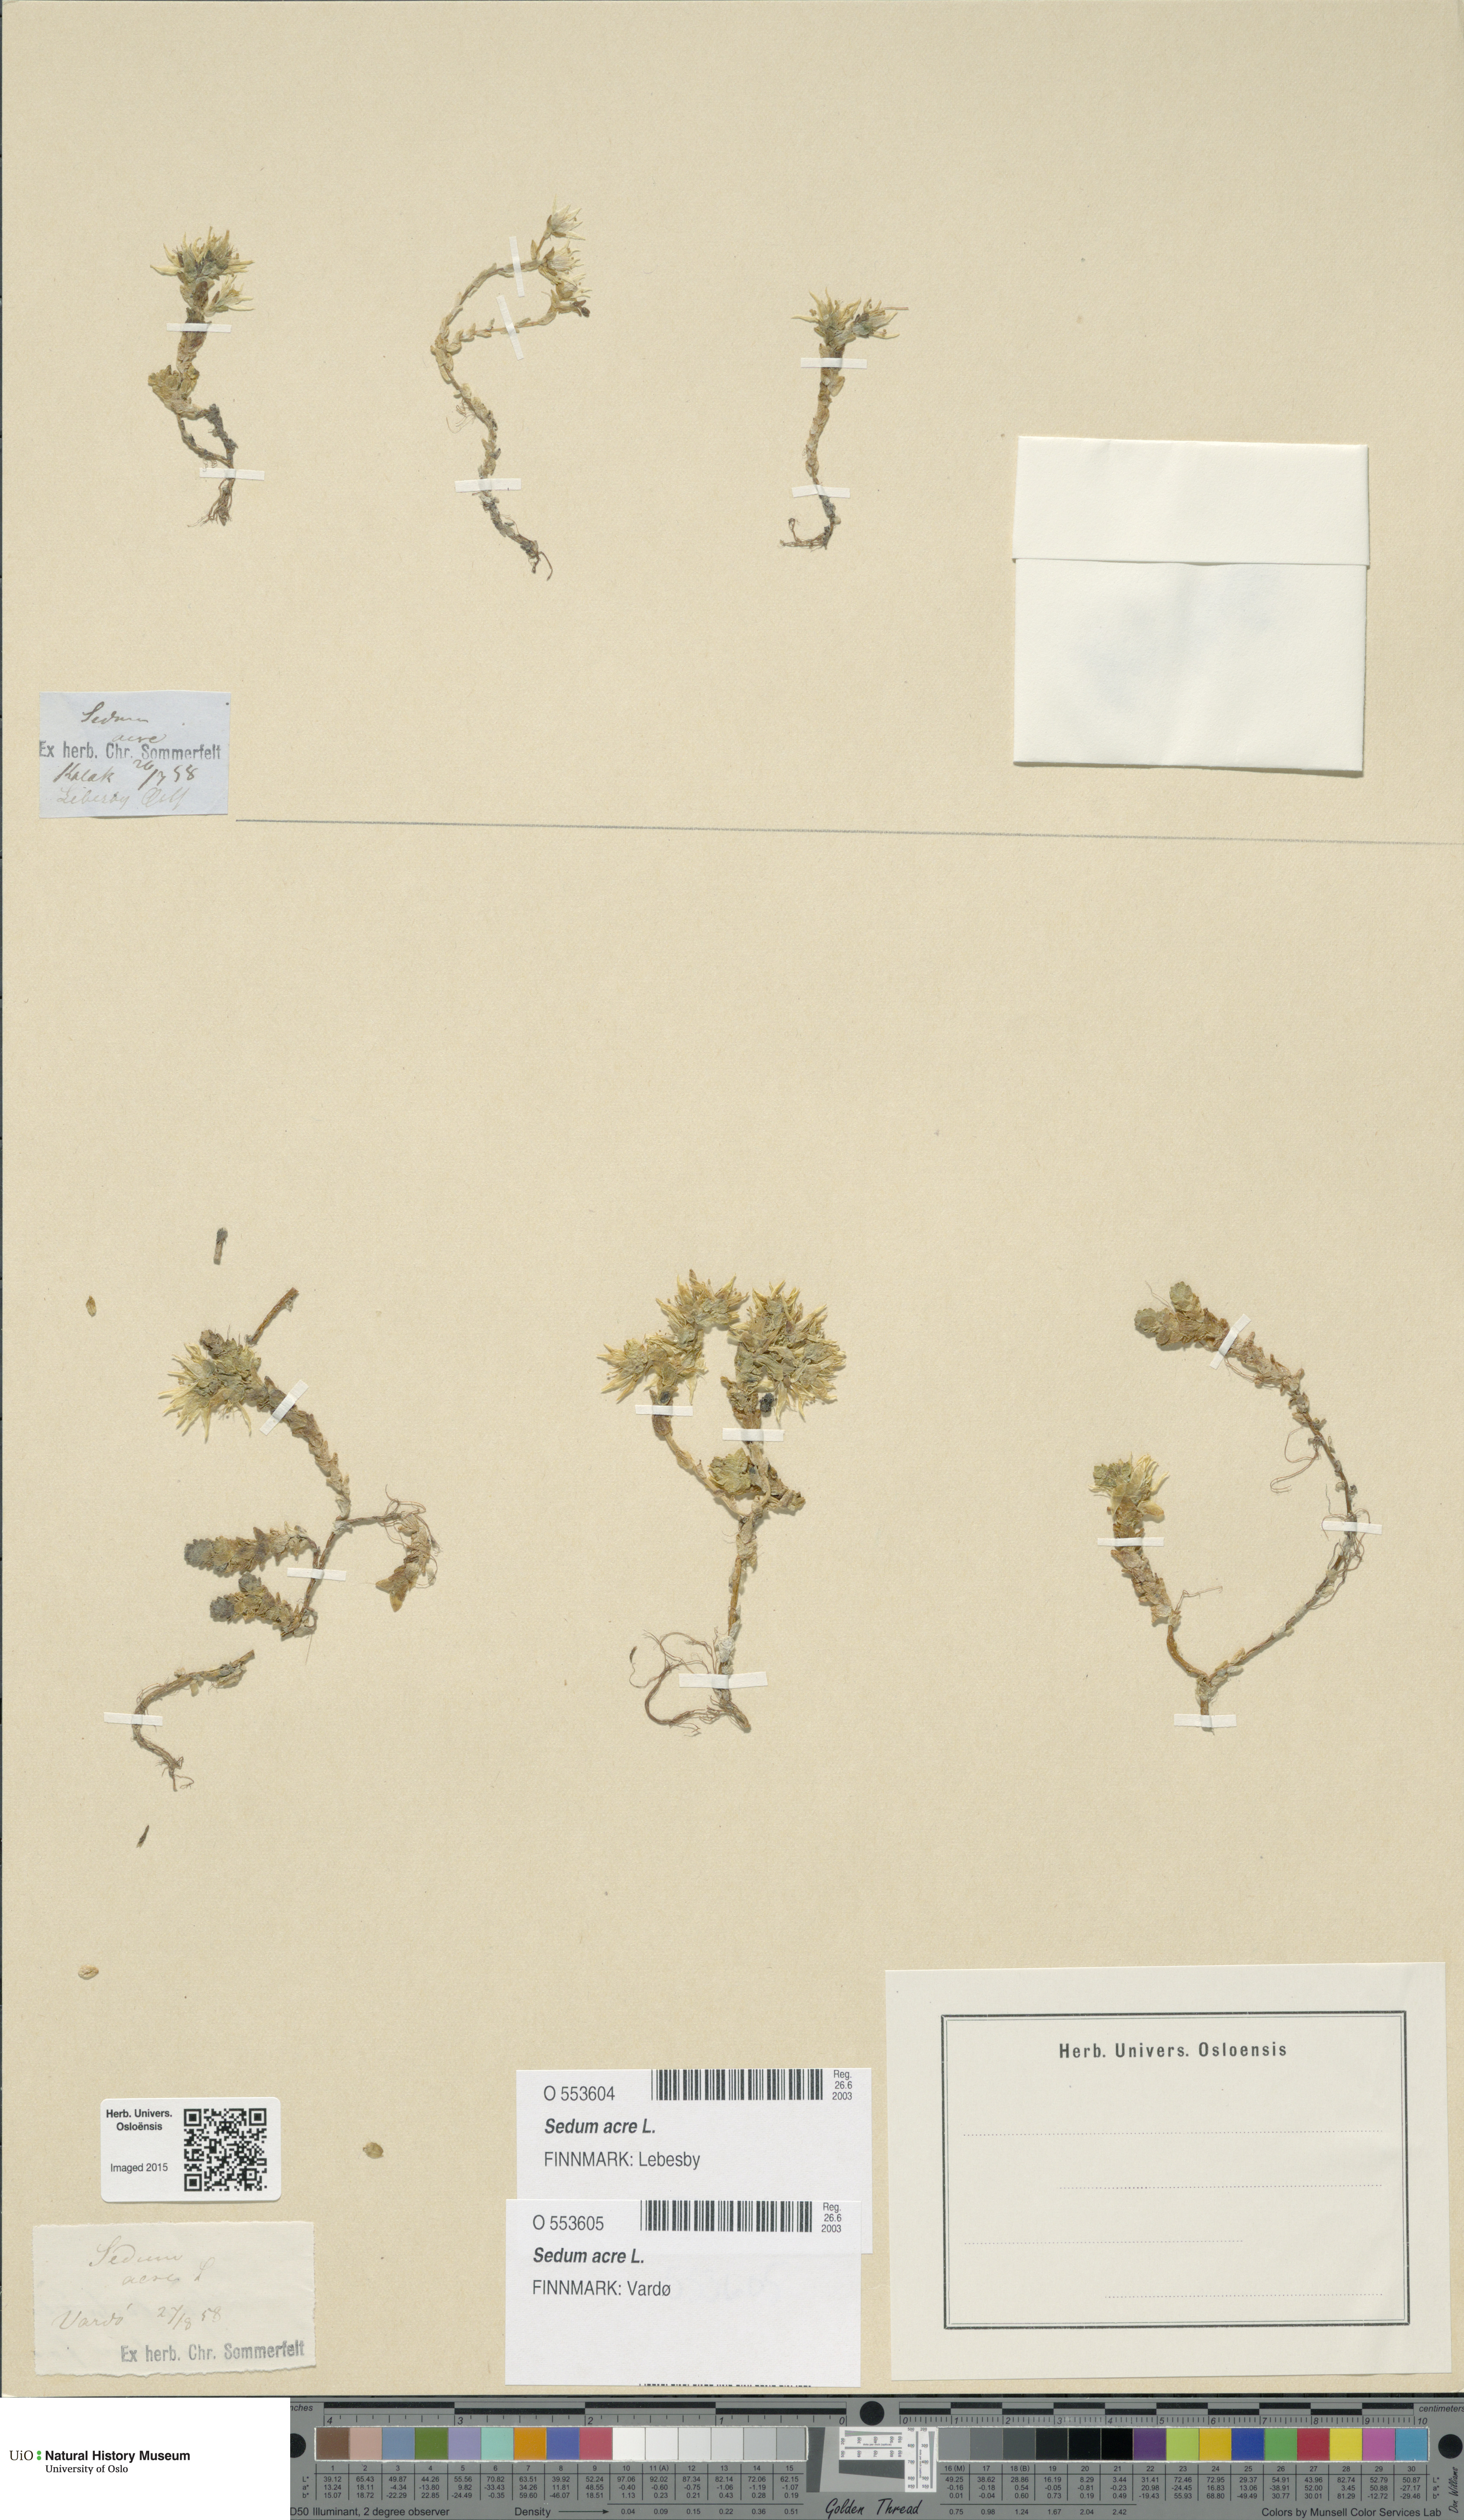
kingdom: Plantae
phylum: Tracheophyta
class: Magnoliopsida
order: Saxifragales
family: Crassulaceae
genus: Sedum
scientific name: Sedum acre
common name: Biting stonecrop
